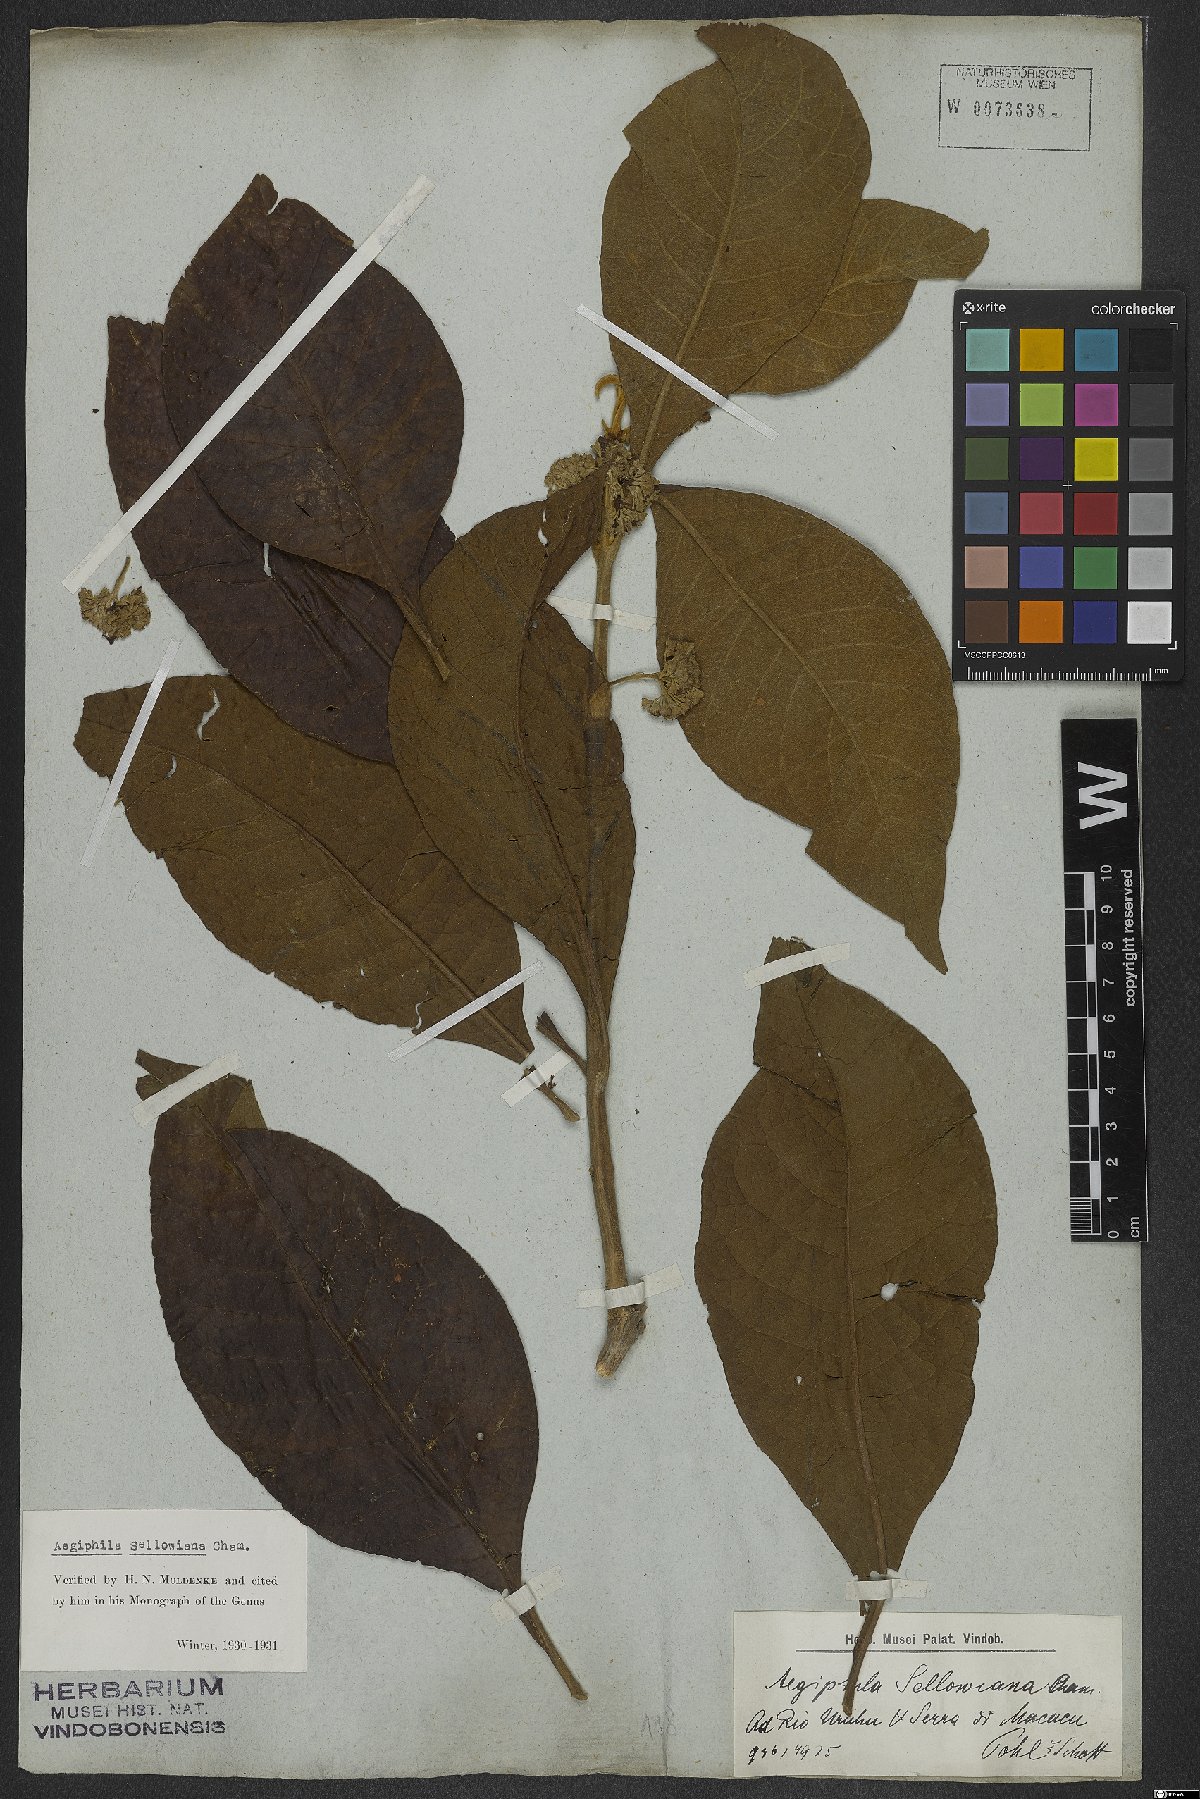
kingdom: Plantae
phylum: Tracheophyta
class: Magnoliopsida
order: Lamiales
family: Lamiaceae
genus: Aegiphila
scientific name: Aegiphila verticillata
